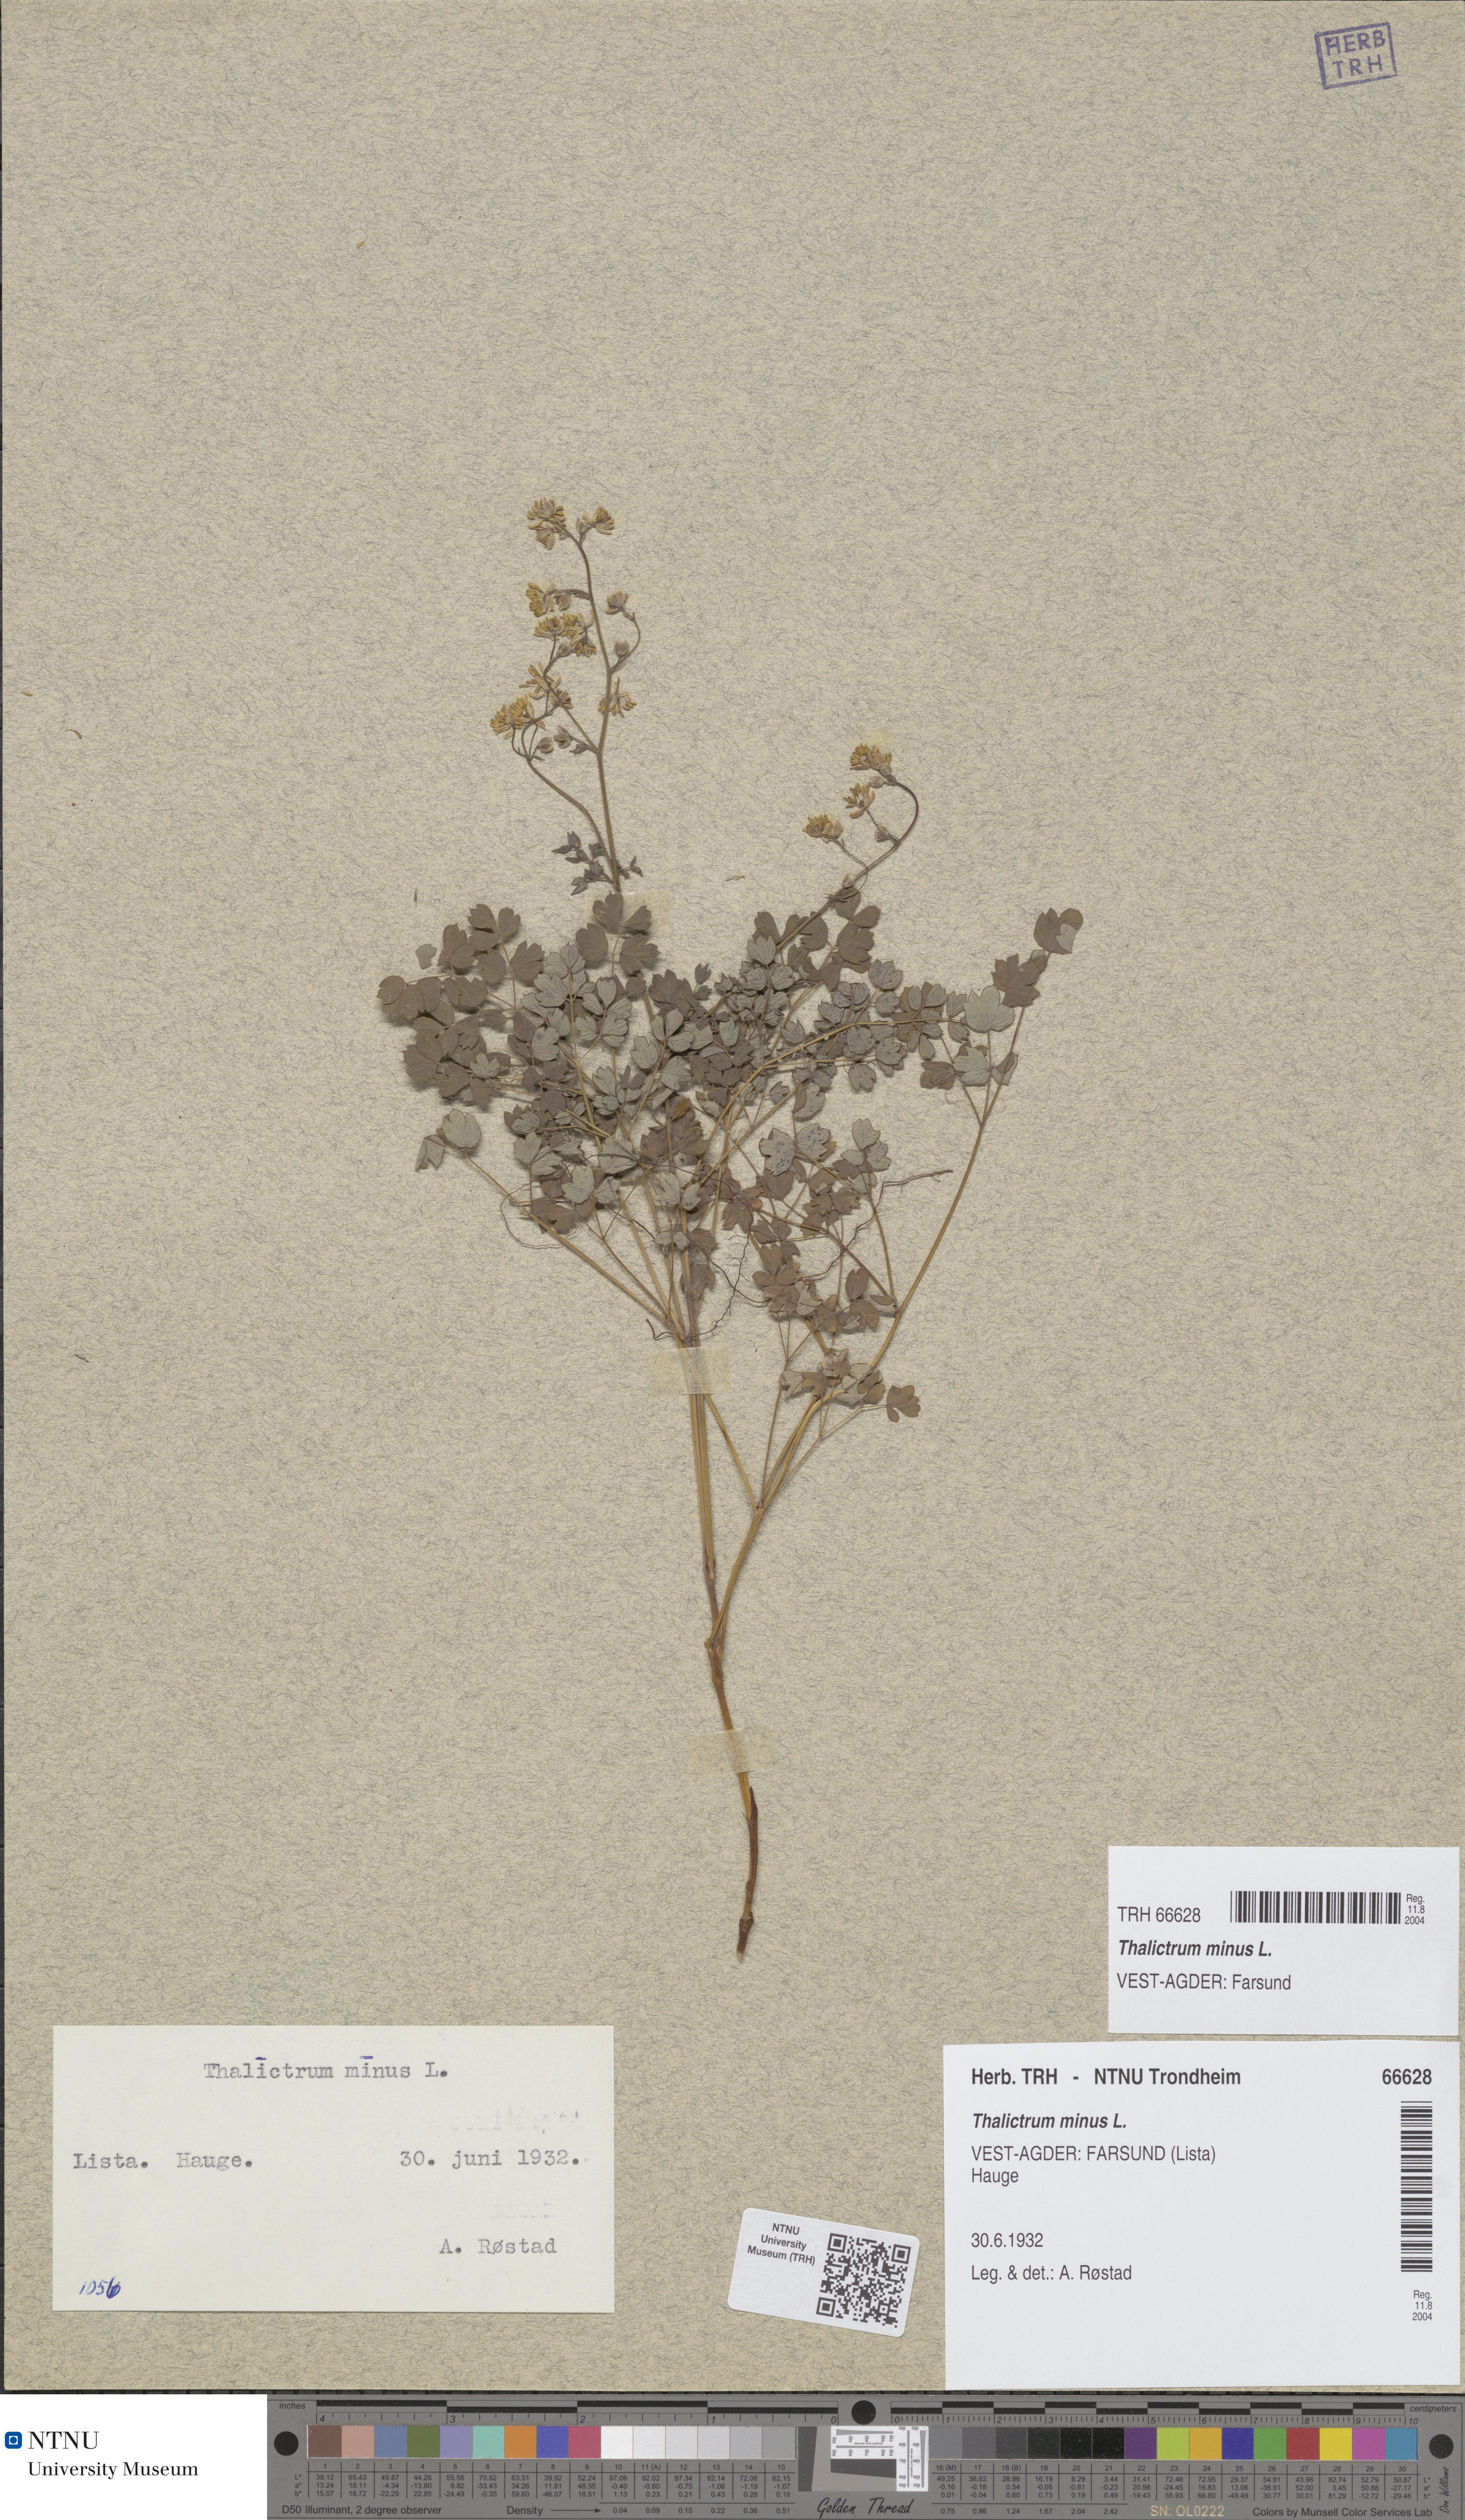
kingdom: Plantae
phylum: Tracheophyta
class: Magnoliopsida
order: Ranunculales
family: Ranunculaceae
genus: Thalictrum
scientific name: Thalictrum minus
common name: Lesser meadow-rue
